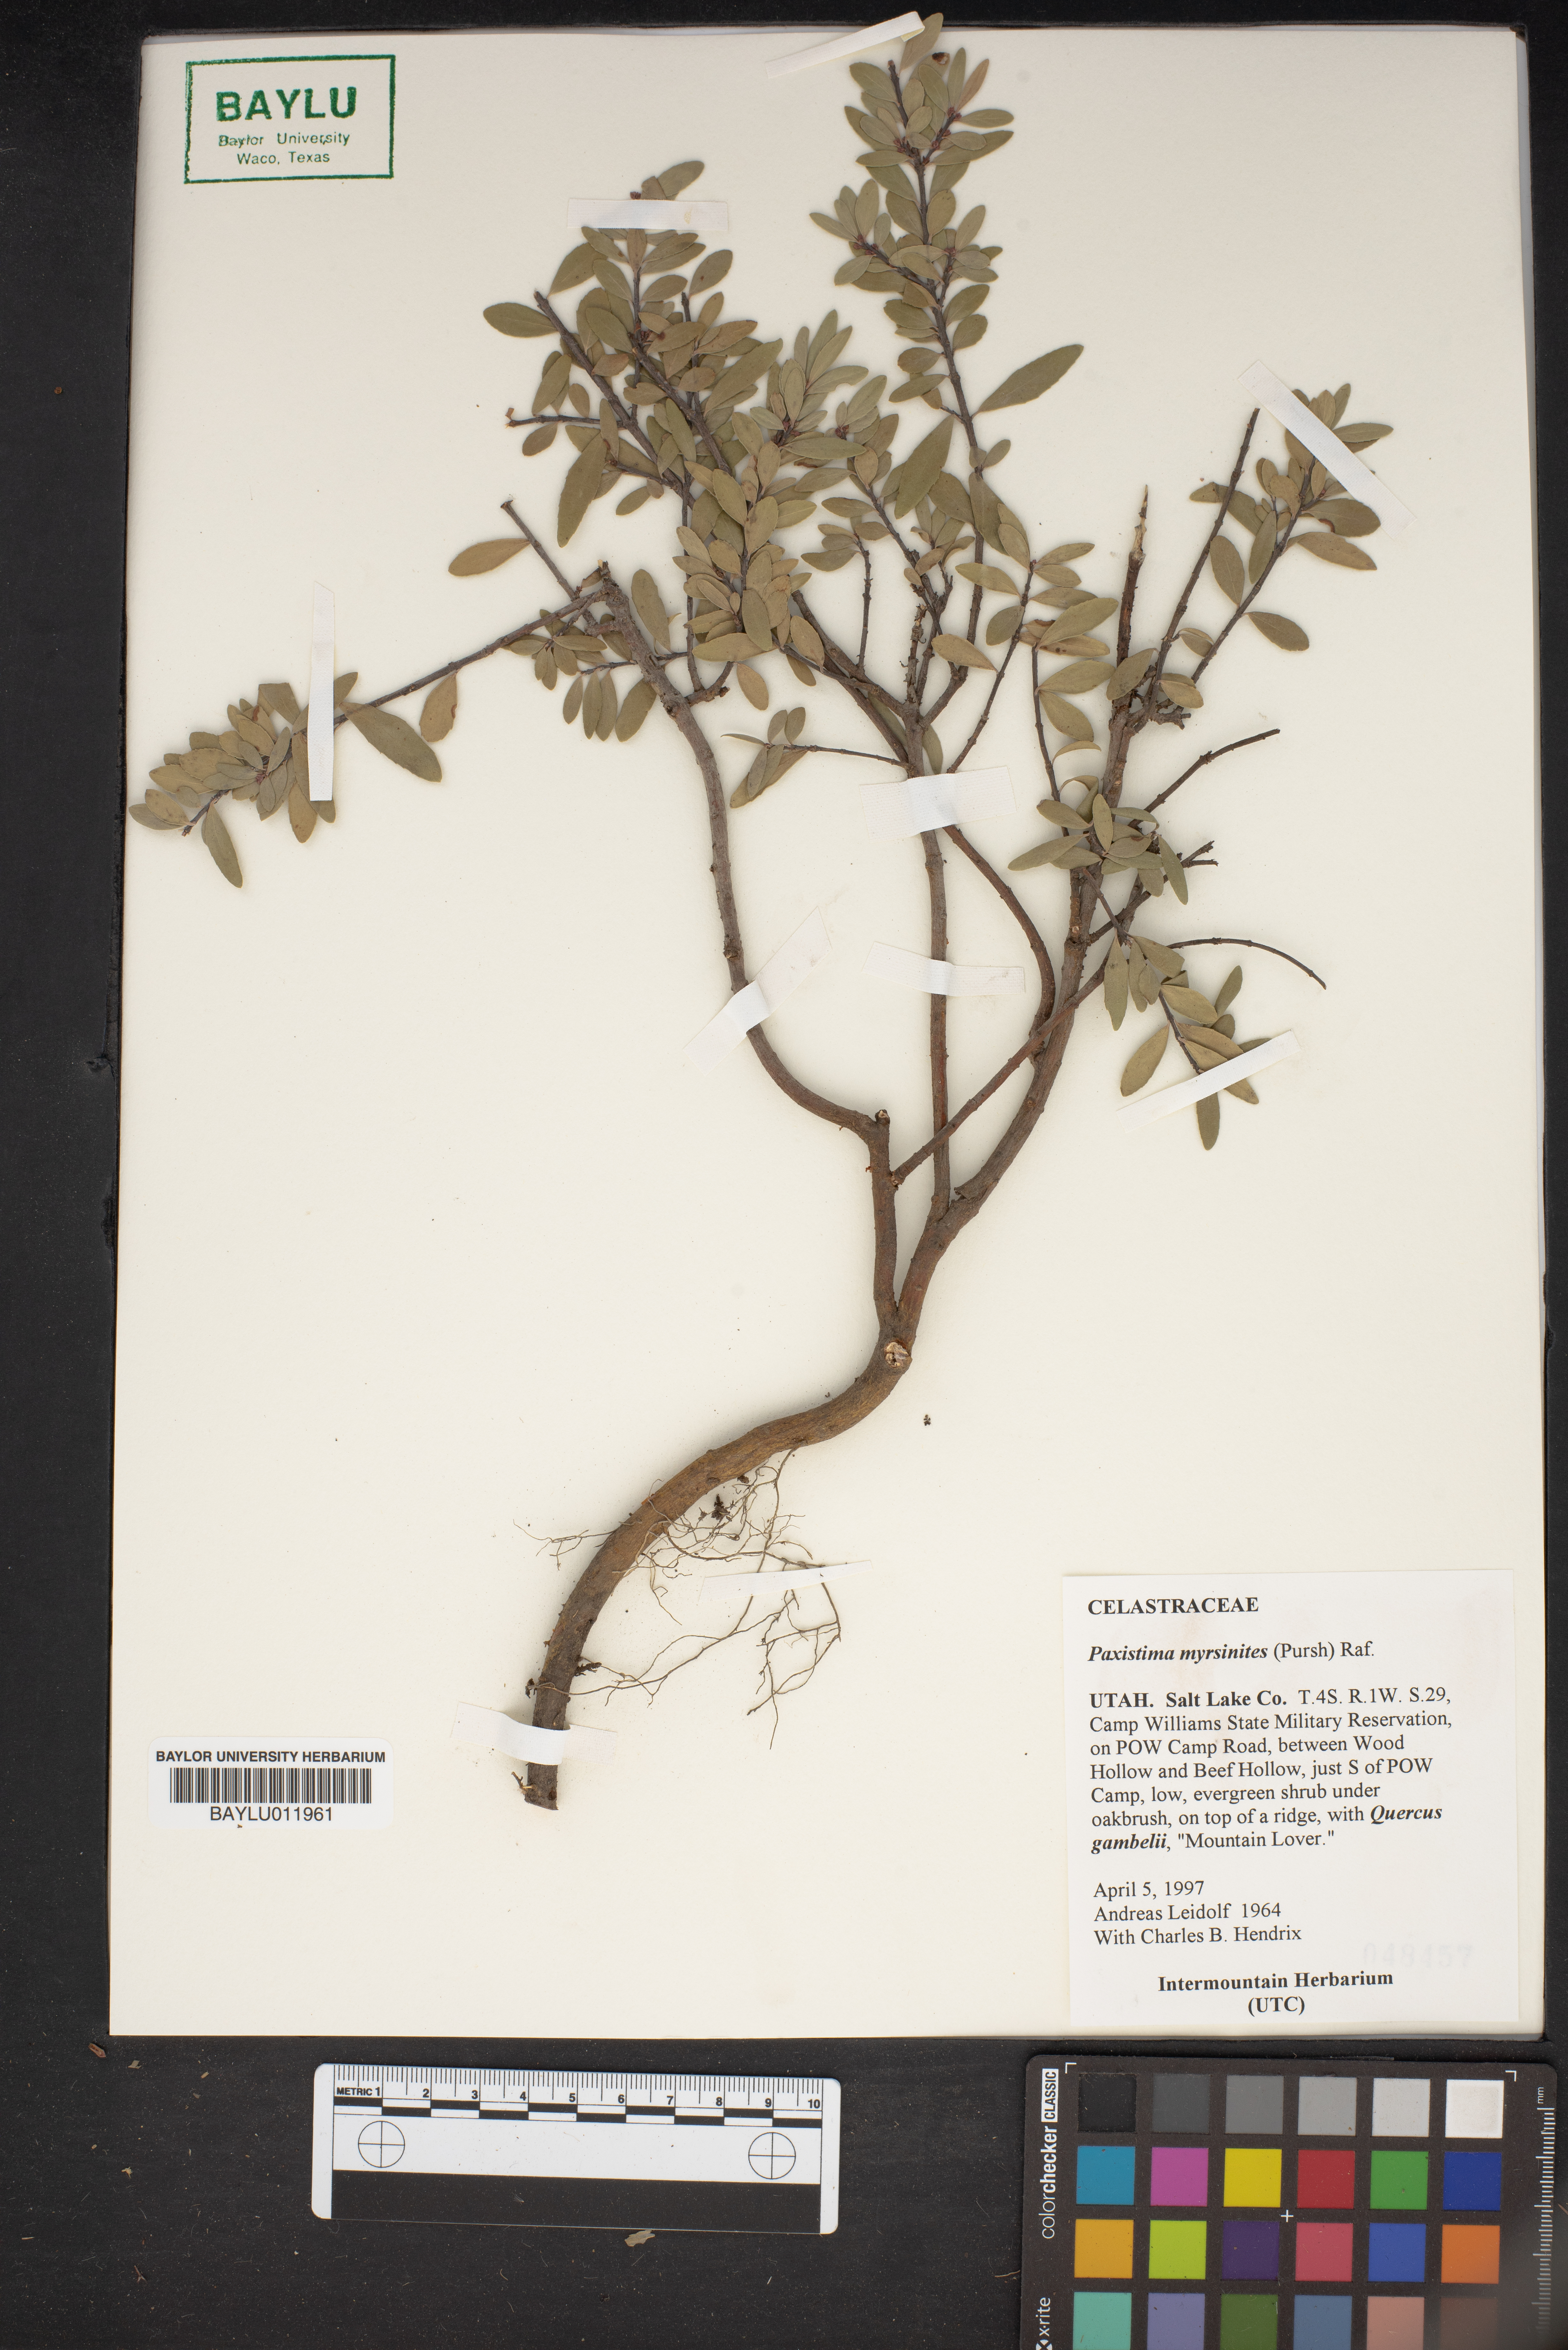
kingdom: Plantae
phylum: Tracheophyta
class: Magnoliopsida
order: Celastrales
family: Celastraceae
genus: Paxistima
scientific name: Paxistima myrsinites
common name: Mountain-lover
